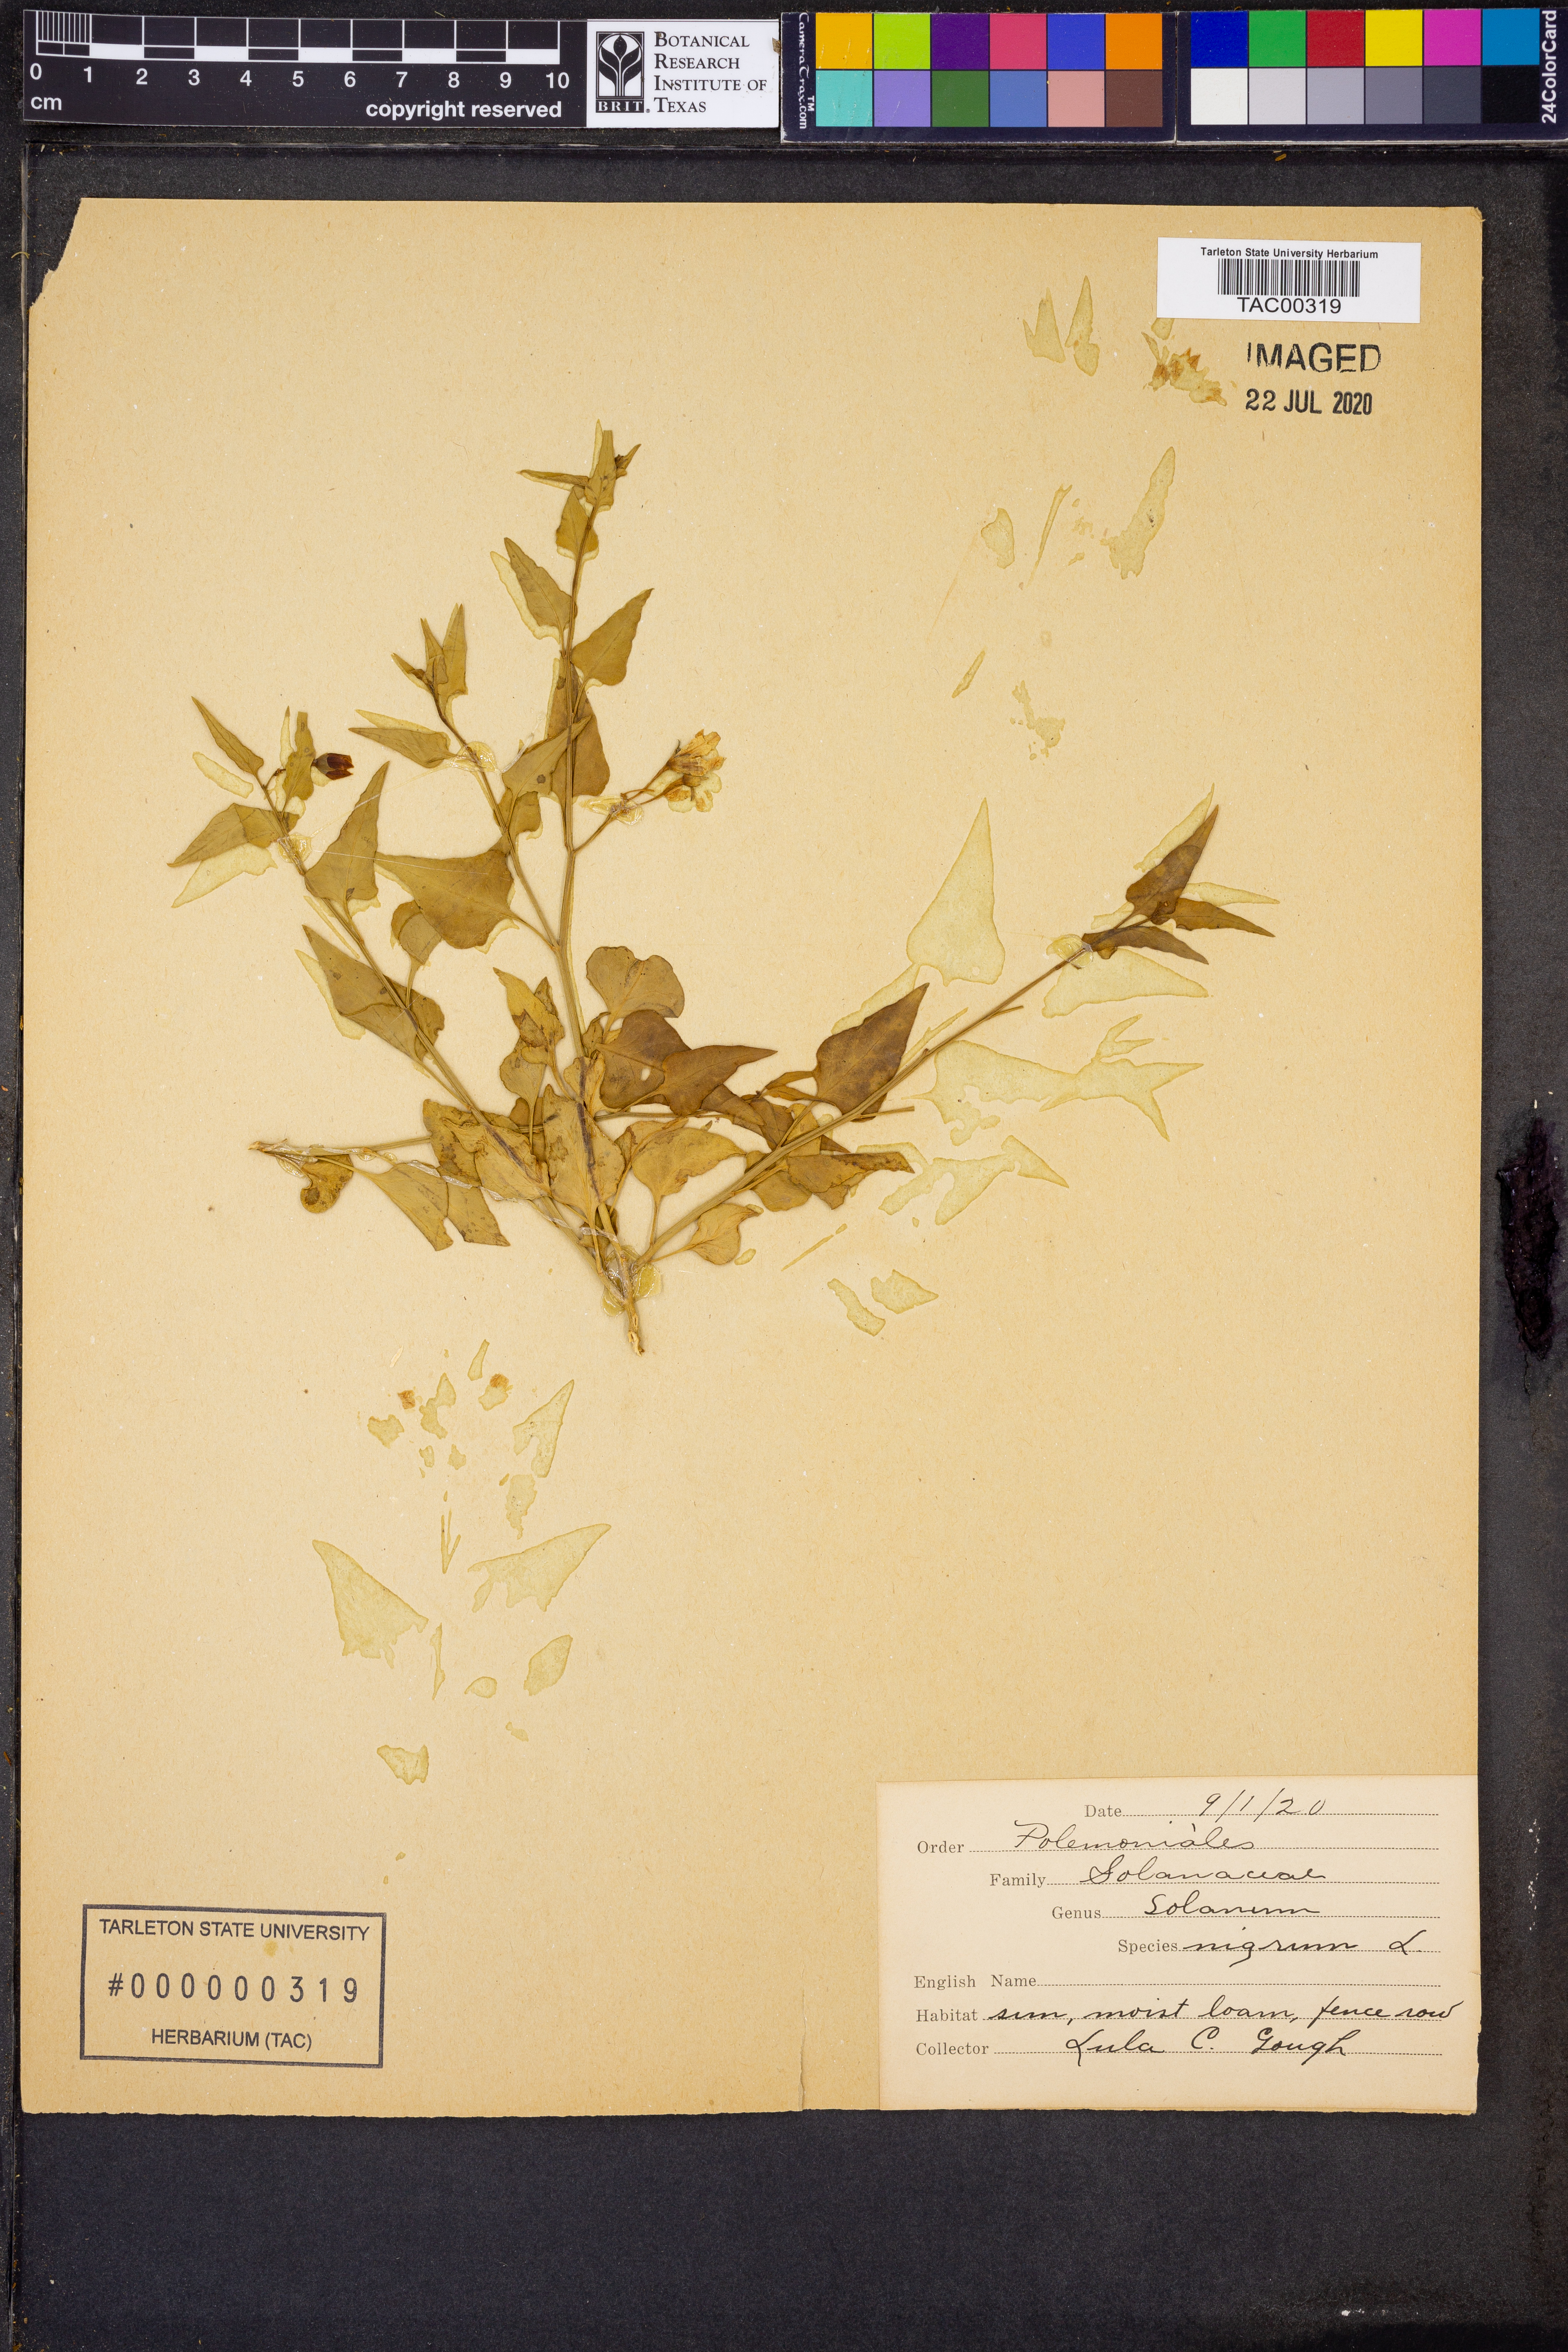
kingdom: Plantae
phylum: Tracheophyta
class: Magnoliopsida
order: Solanales
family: Solanaceae
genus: Solanum
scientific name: Solanum nigrum
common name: Black nightshade
